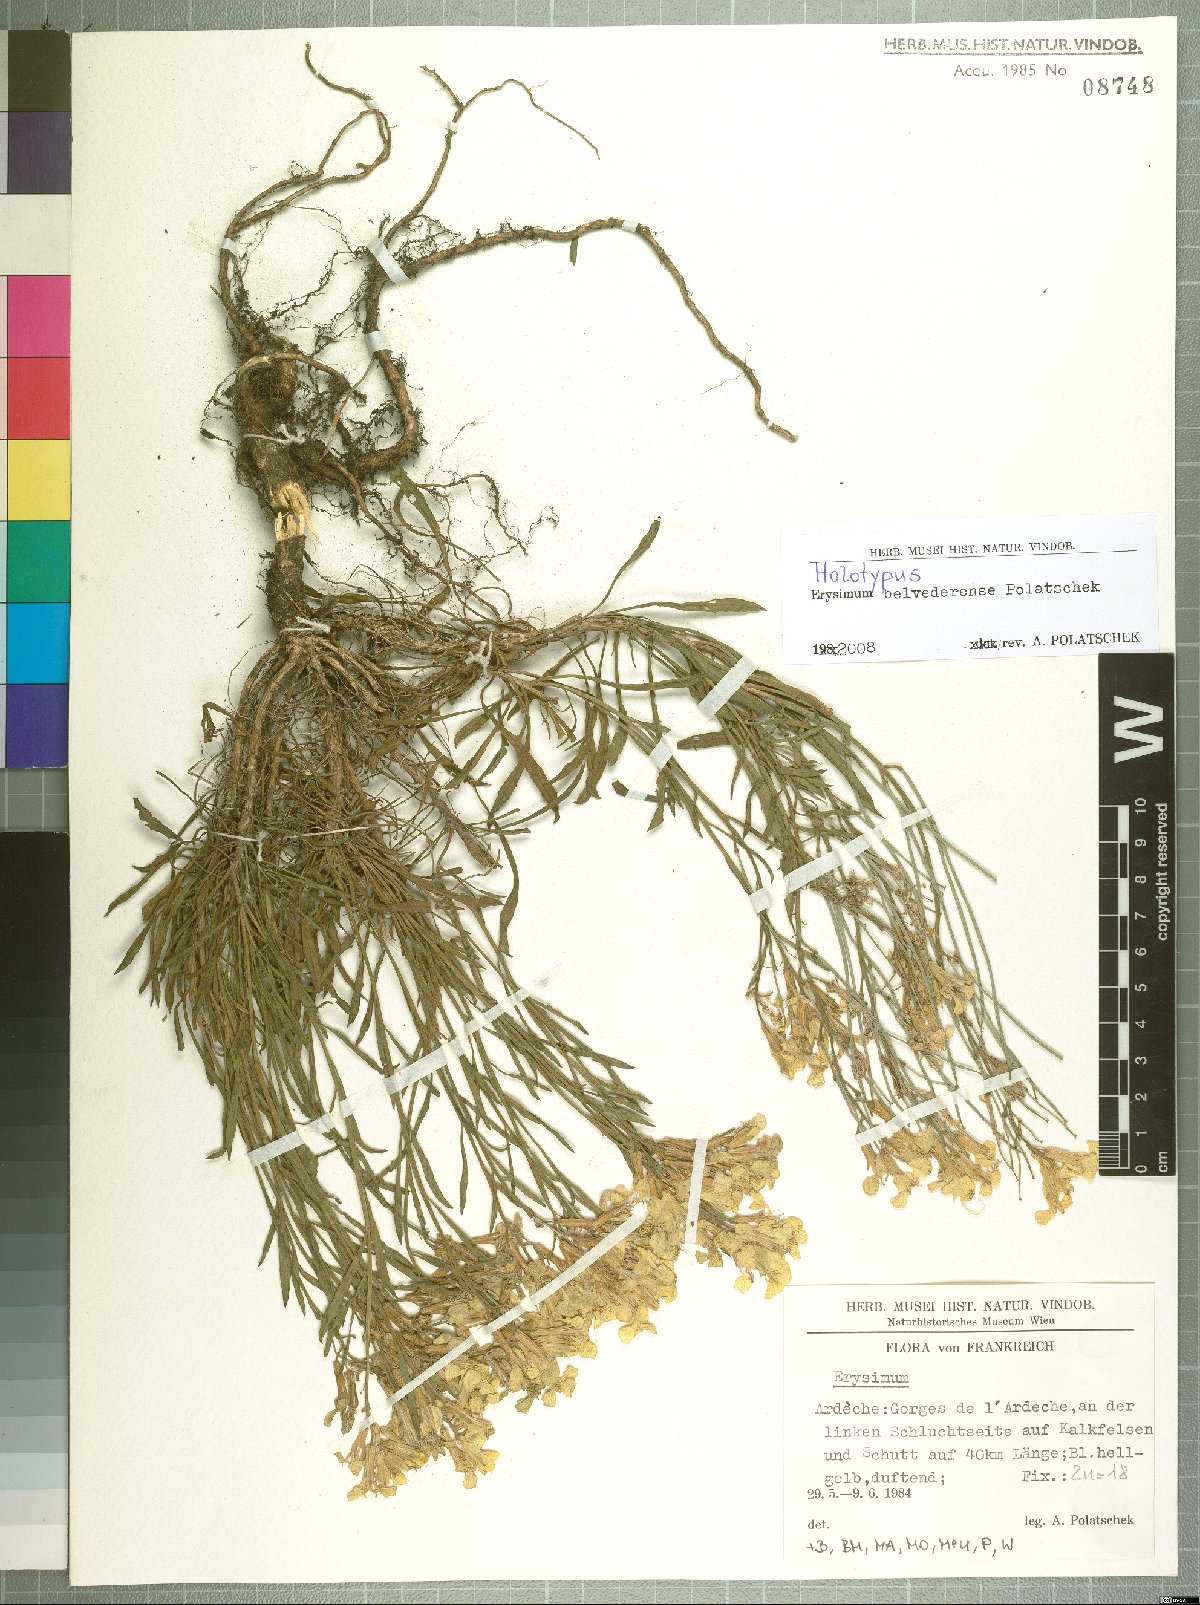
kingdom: Plantae
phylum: Tracheophyta
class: Magnoliopsida
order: Brassicales
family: Brassicaceae
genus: Erysimum
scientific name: Erysimum belvederense
